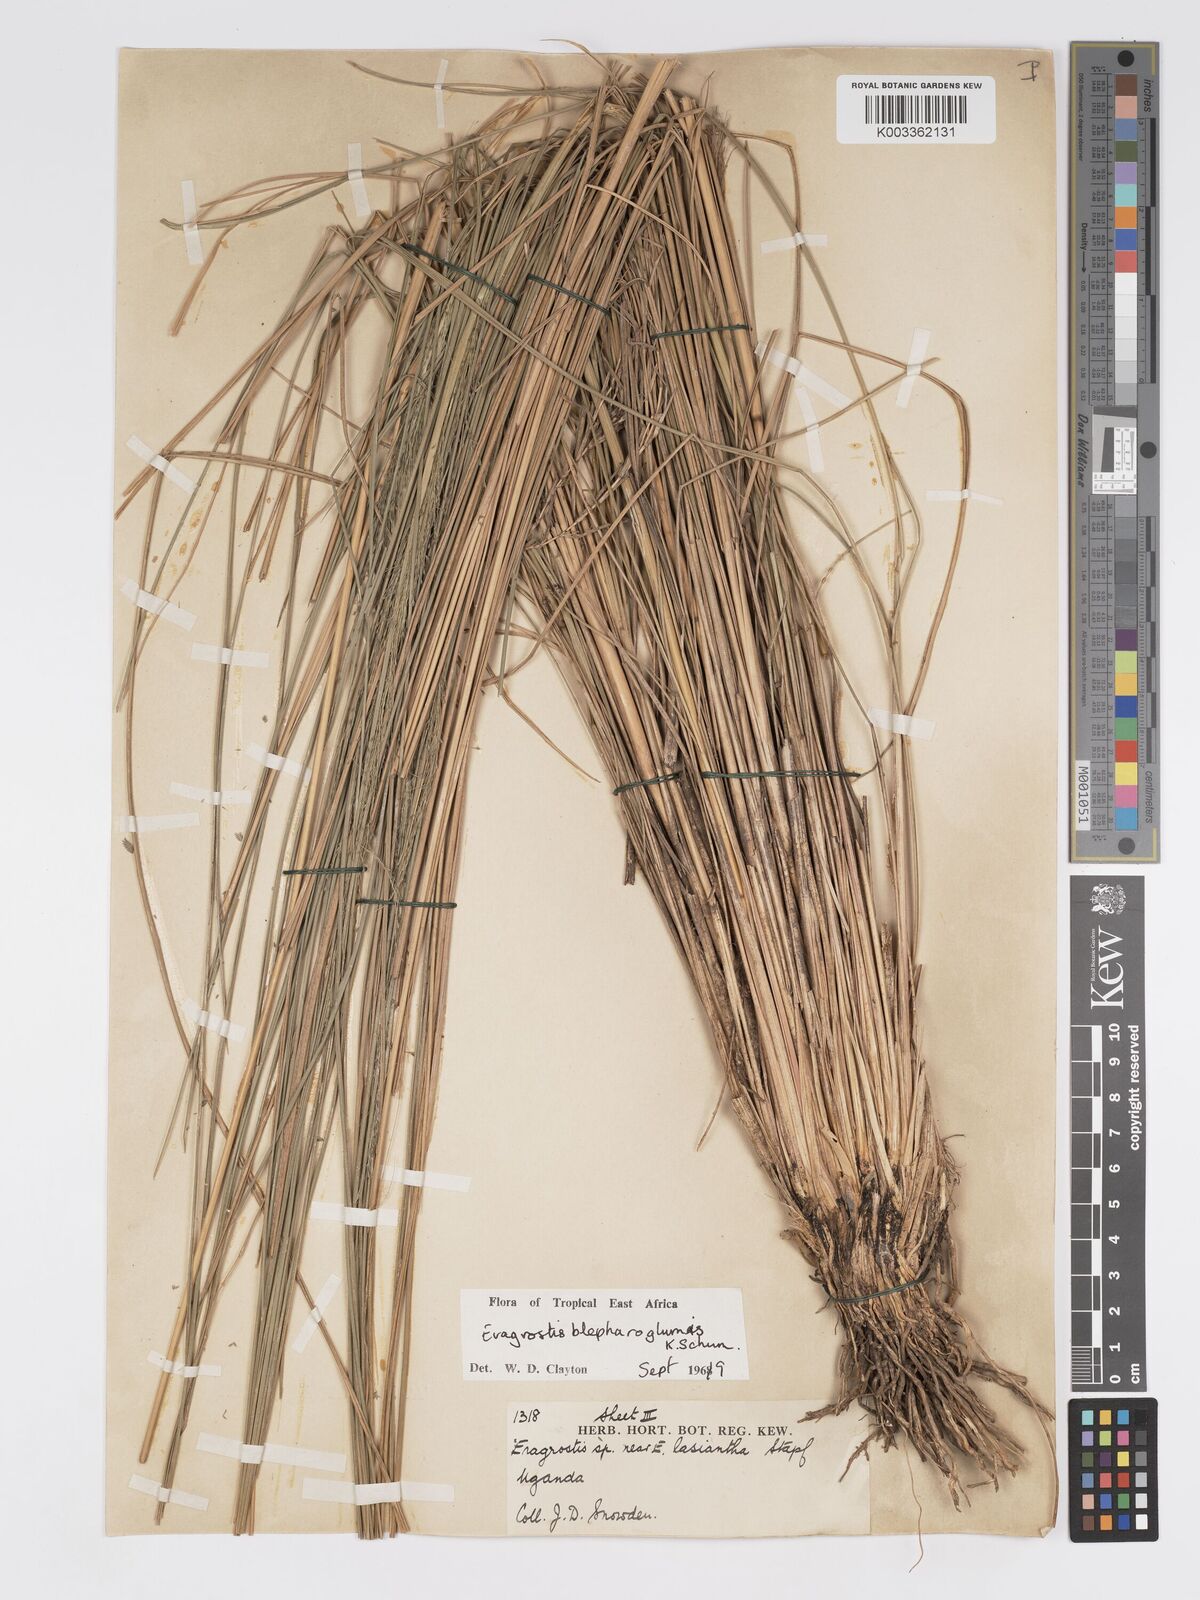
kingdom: Plantae
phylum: Tracheophyta
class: Liliopsida
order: Poales
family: Poaceae
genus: Eragrostis
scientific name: Eragrostis olivacea
